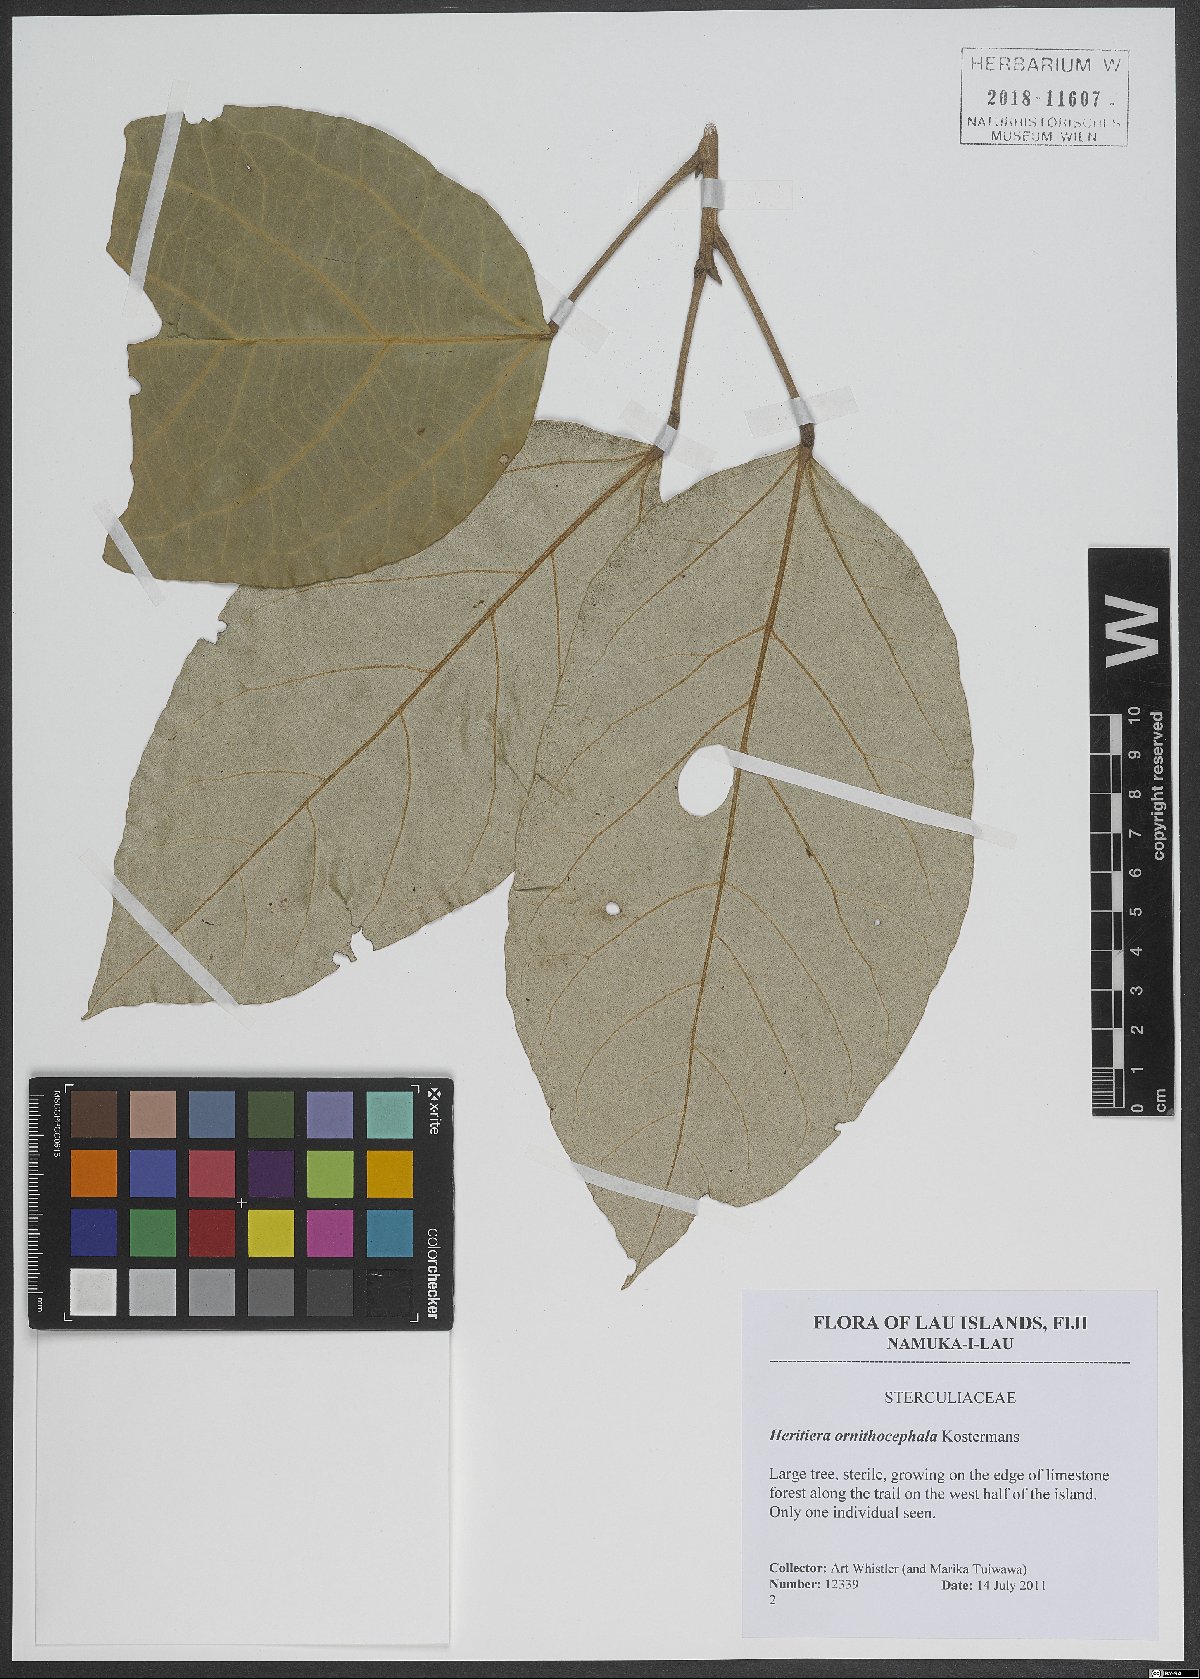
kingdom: Plantae
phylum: Tracheophyta
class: Magnoliopsida
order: Malvales
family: Malvaceae
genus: Heritiera
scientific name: Heritiera ornithocephala
